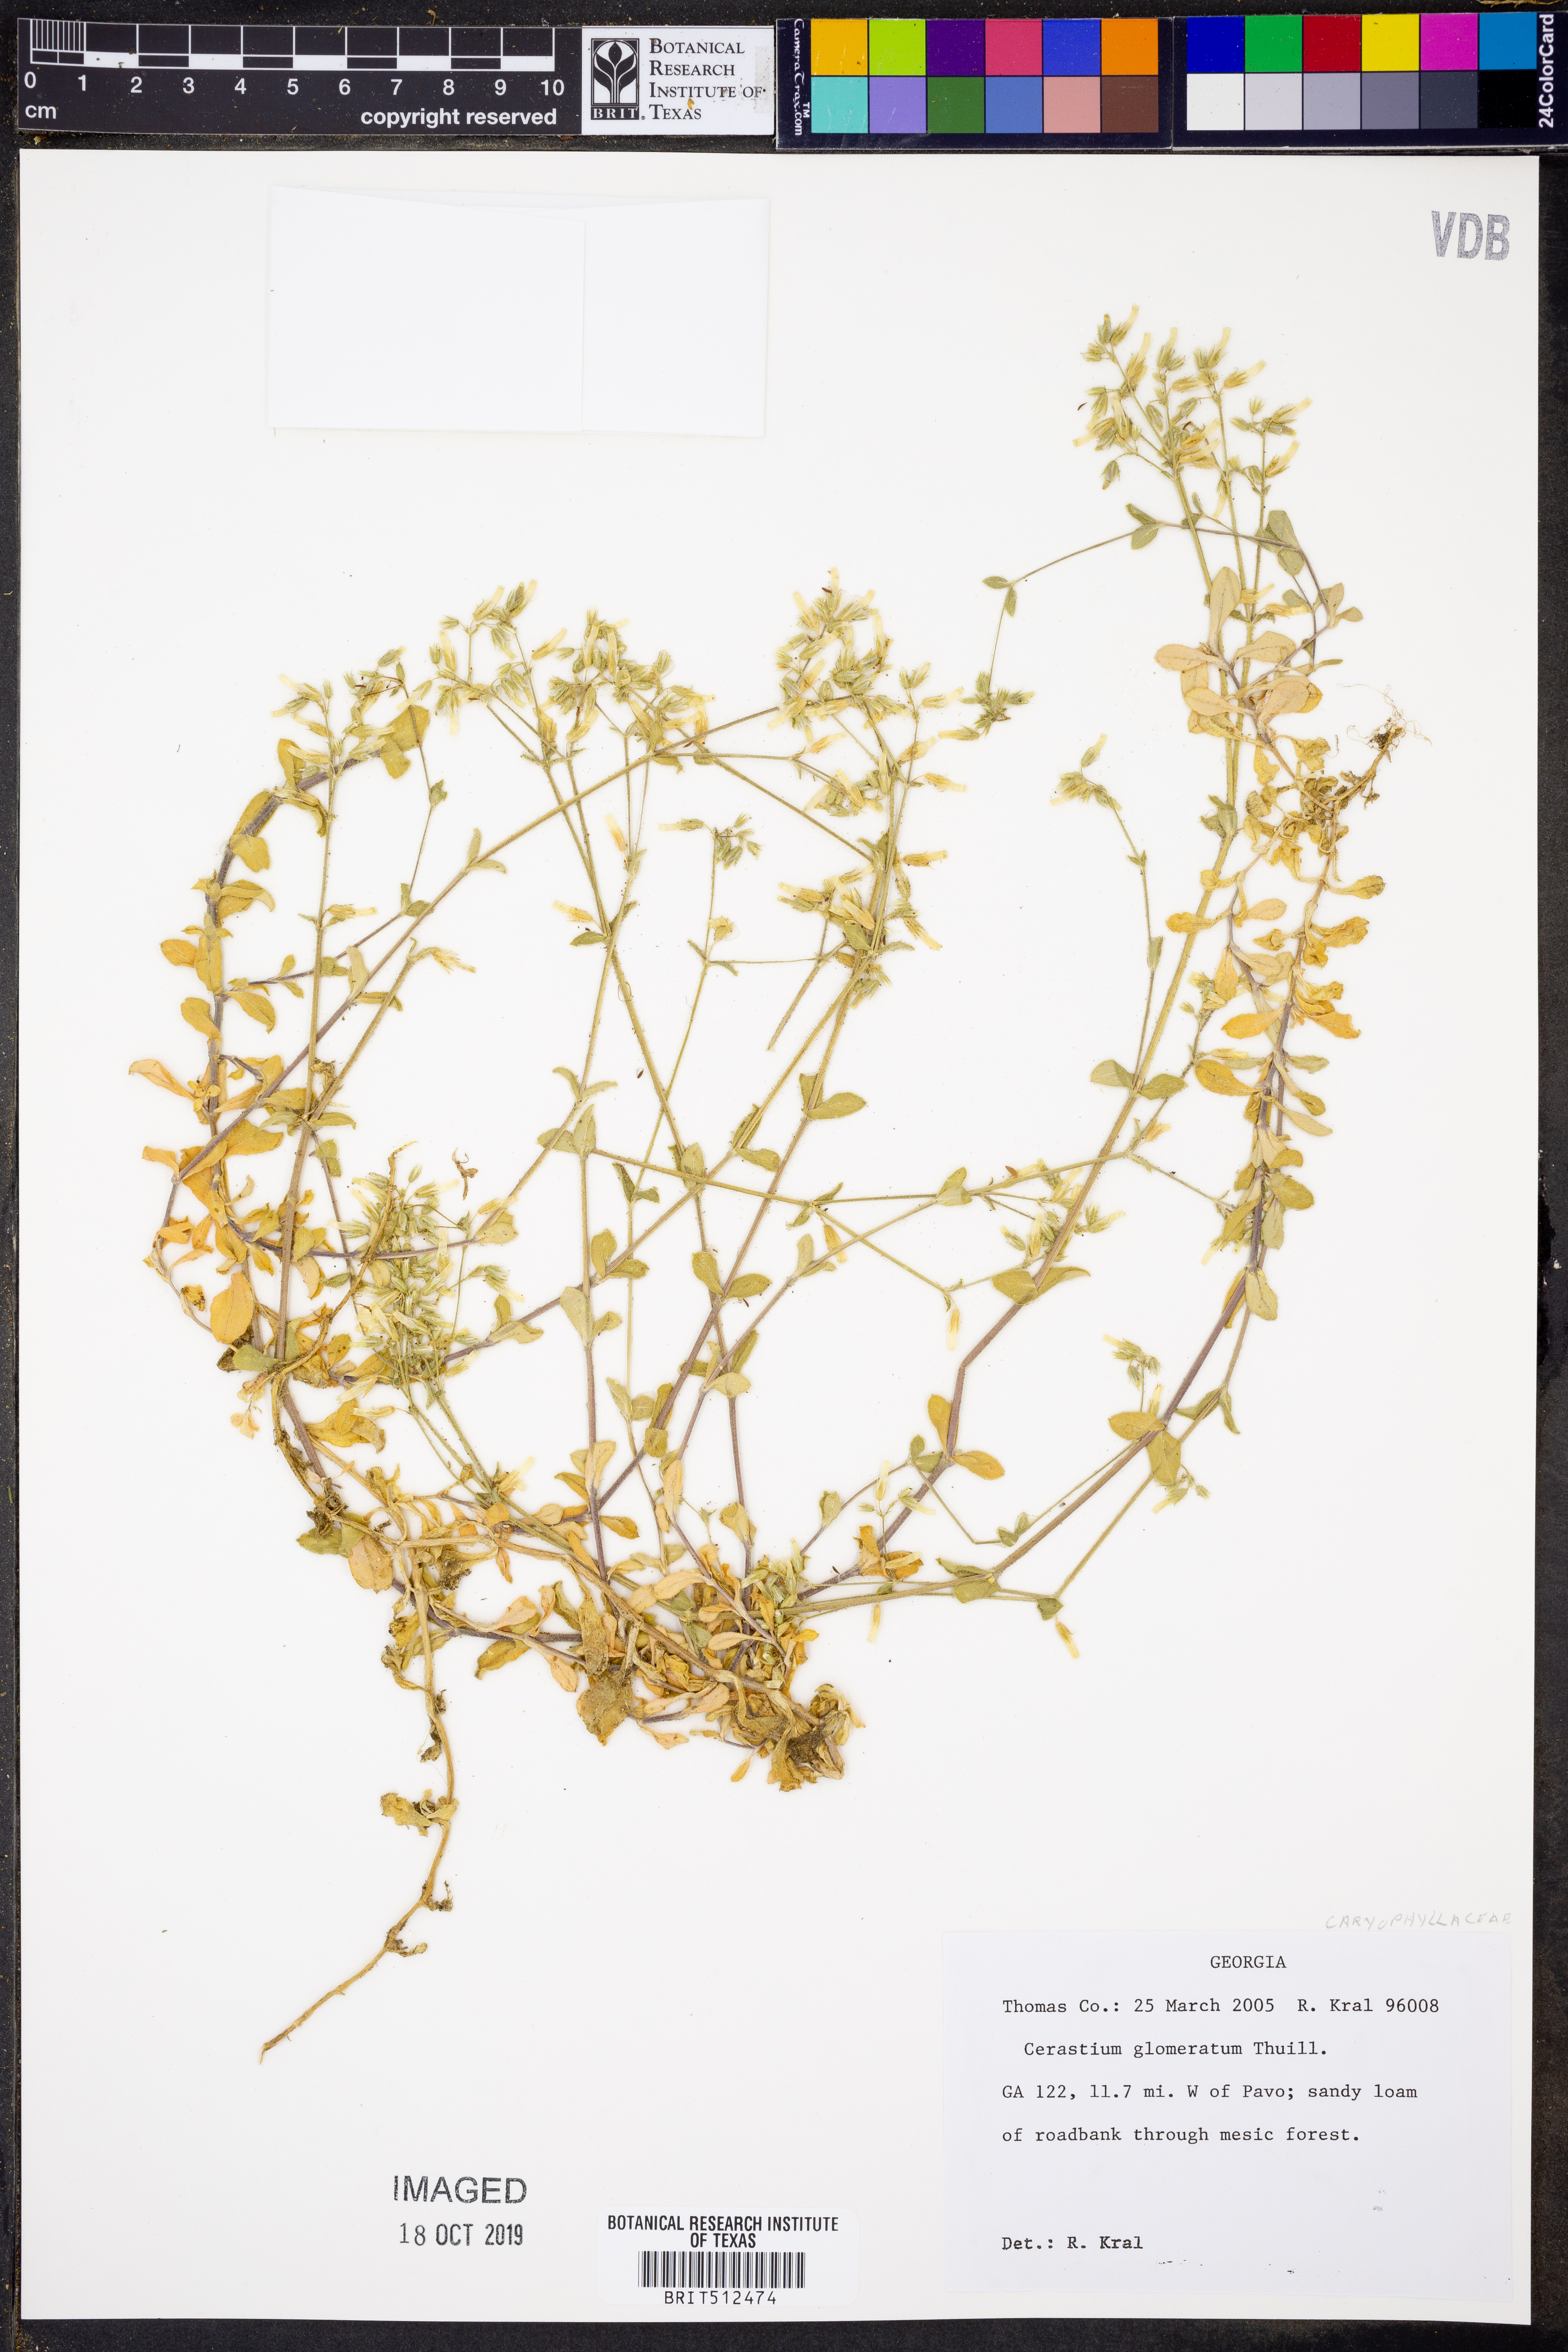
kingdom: Plantae
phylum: Tracheophyta
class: Magnoliopsida
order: Caryophyllales
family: Caryophyllaceae
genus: Cerastium
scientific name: Cerastium glomeratum
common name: Sticky chickweed
